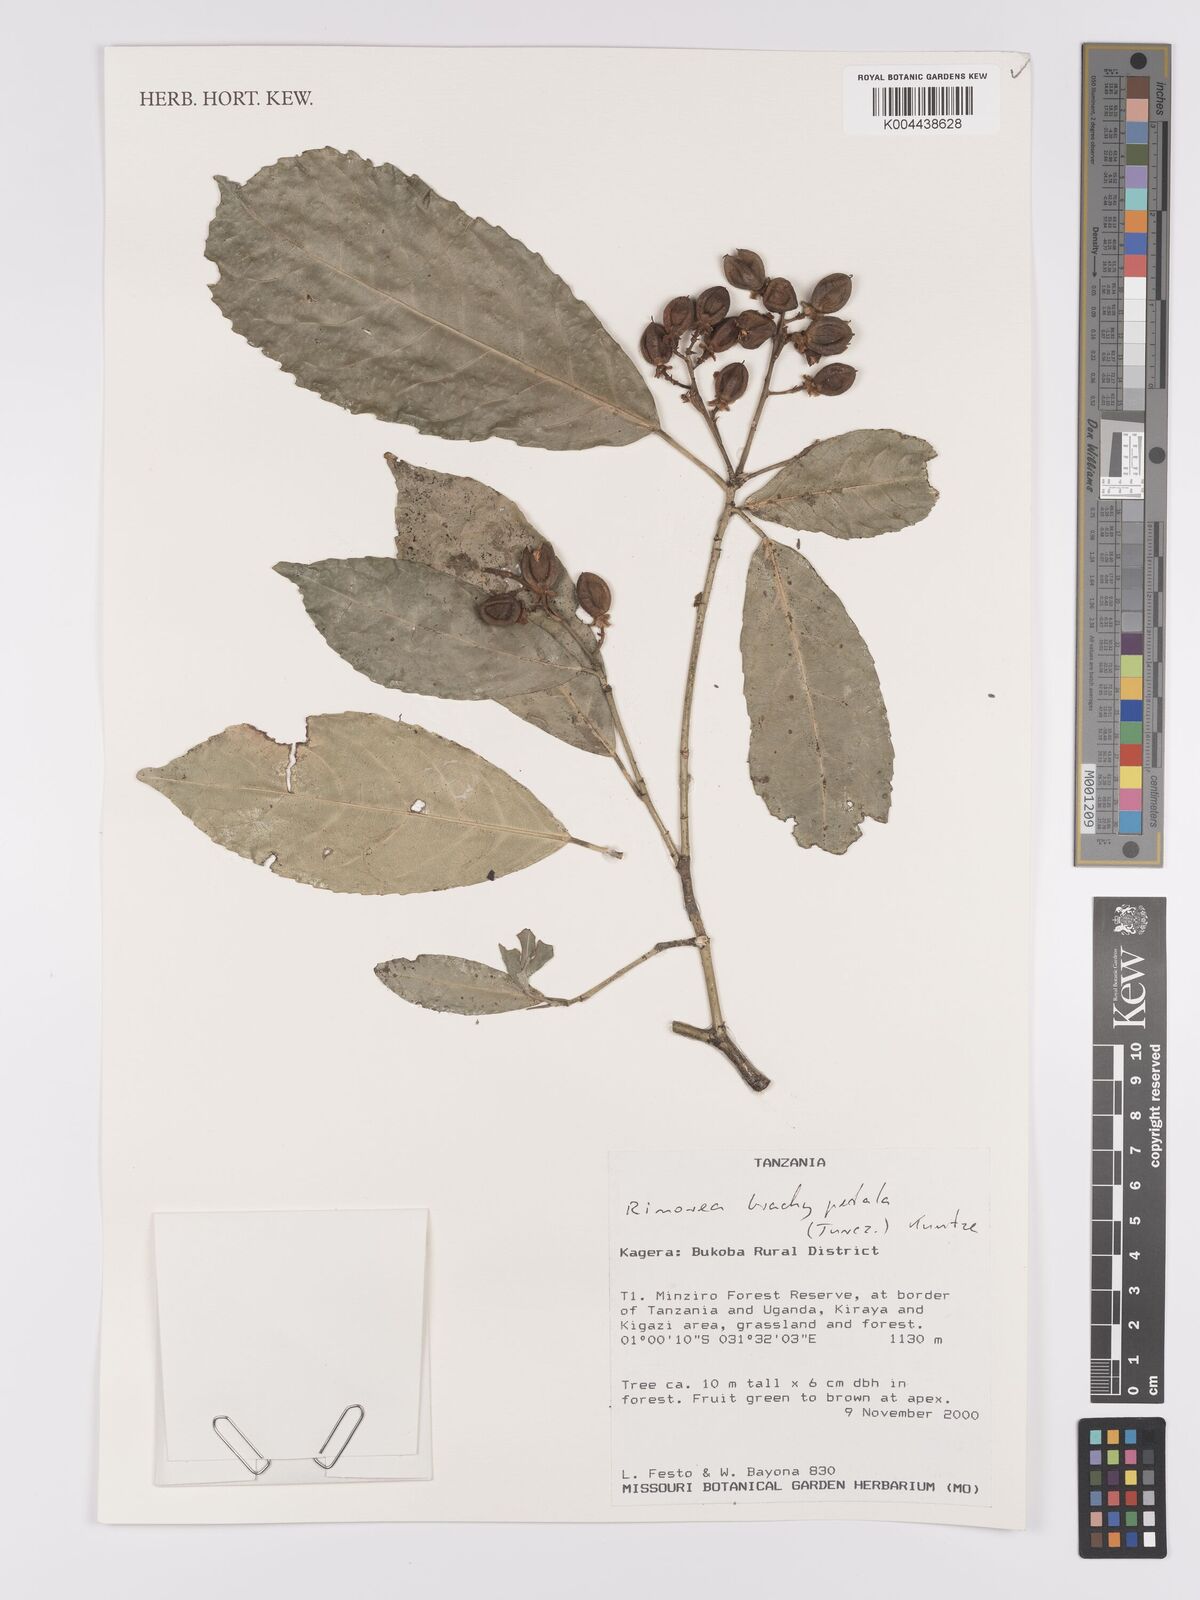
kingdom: Plantae
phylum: Tracheophyta
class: Magnoliopsida
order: Malpighiales
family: Violaceae
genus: Rinorea
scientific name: Rinorea brachypetala
